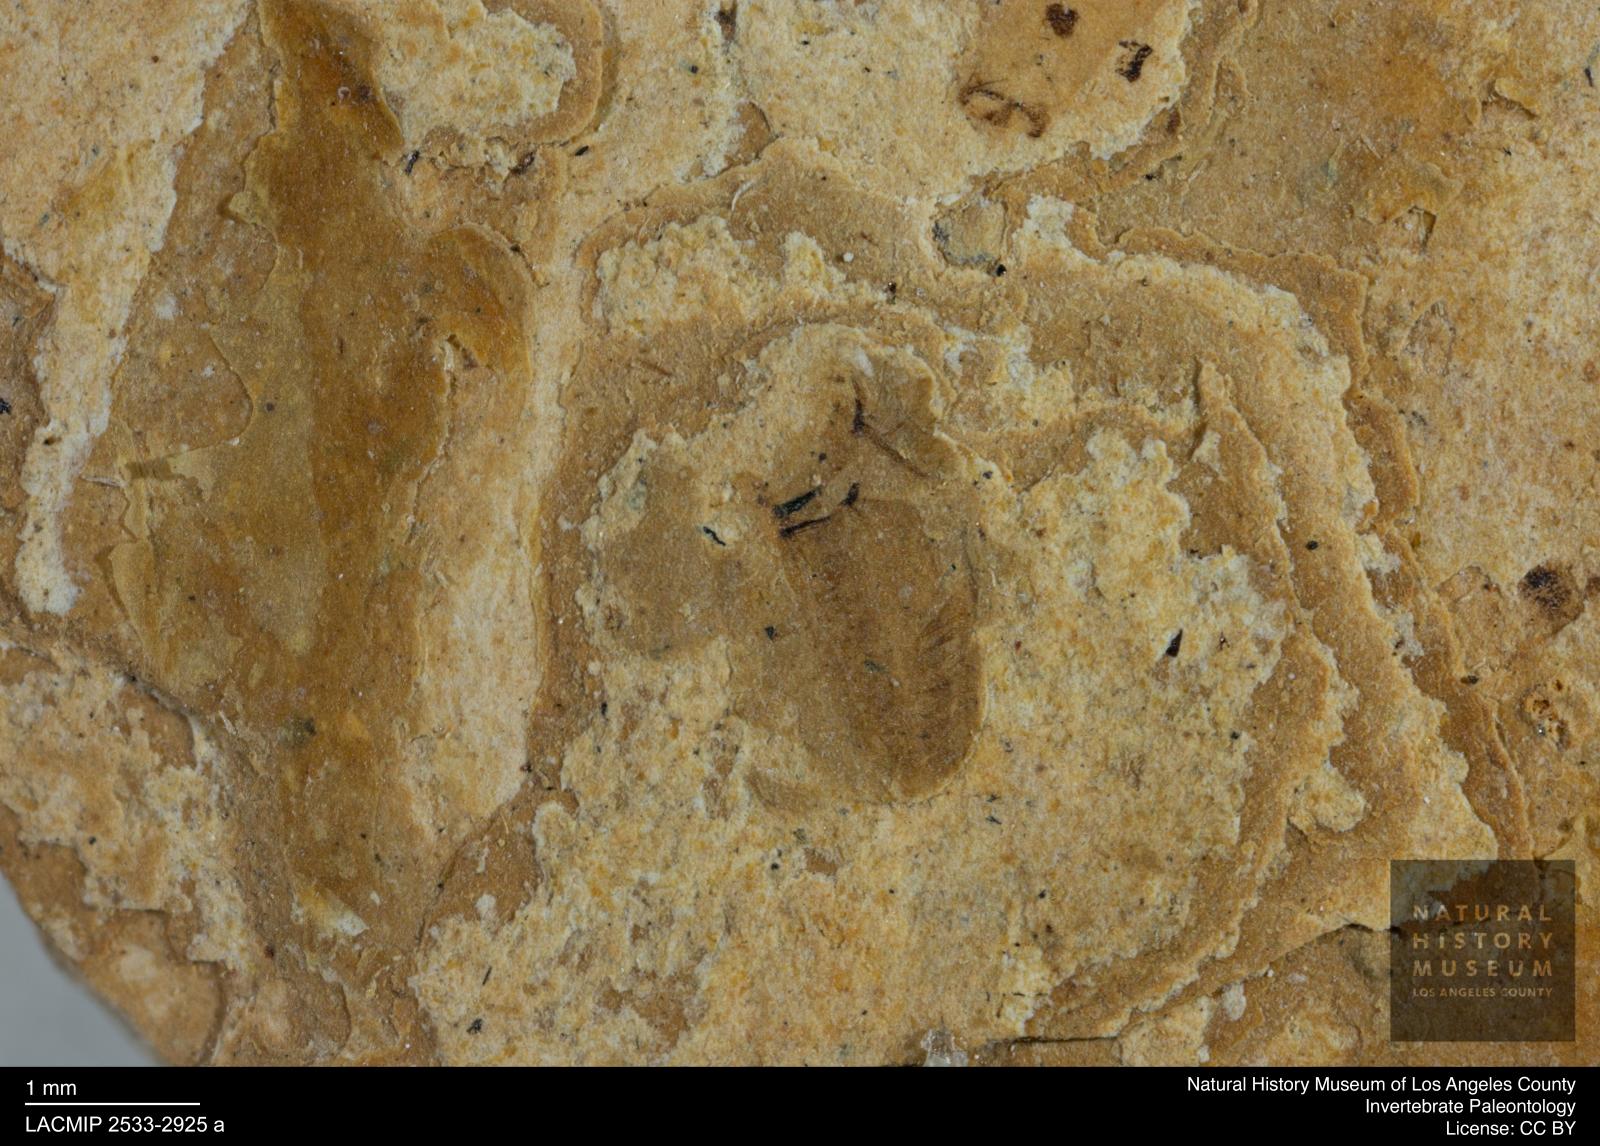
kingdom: Animalia
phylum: Arthropoda
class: Insecta
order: Hemiptera
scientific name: Hemiptera
